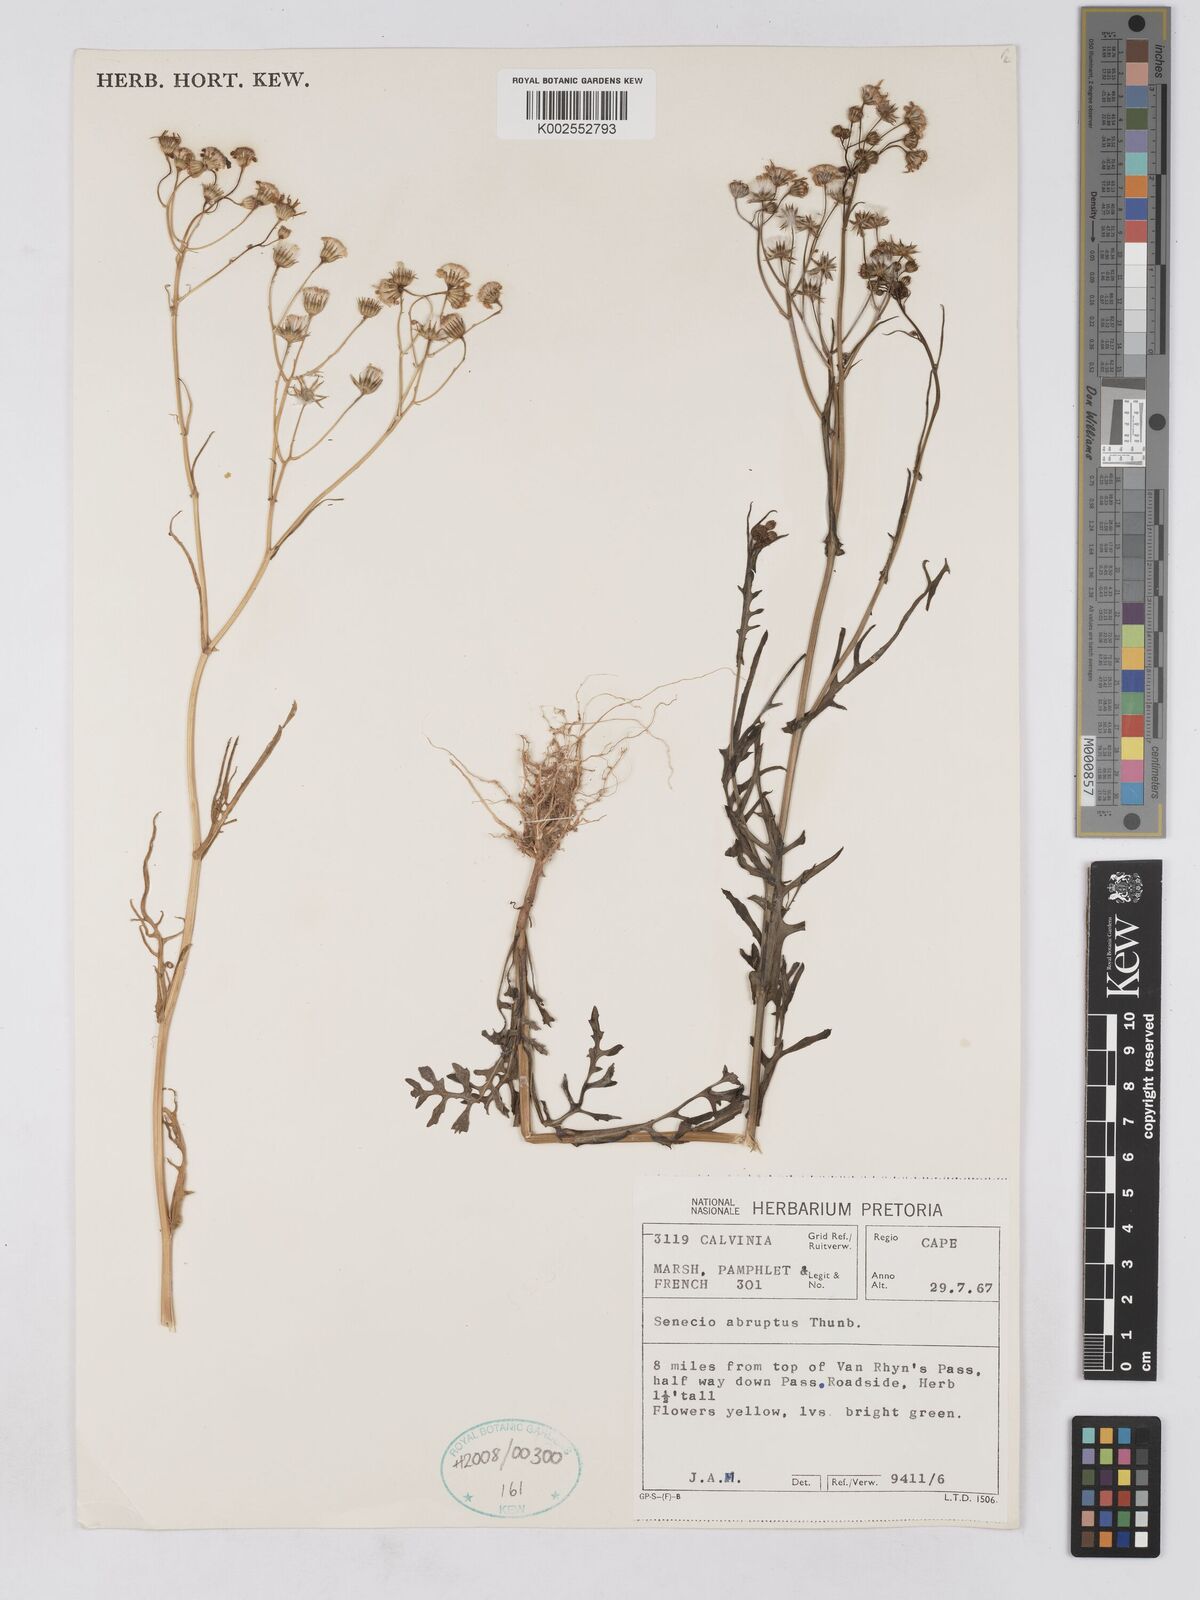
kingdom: Plantae
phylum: Tracheophyta
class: Magnoliopsida
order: Asterales
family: Asteraceae
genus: Senecio
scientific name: Senecio abruptus
